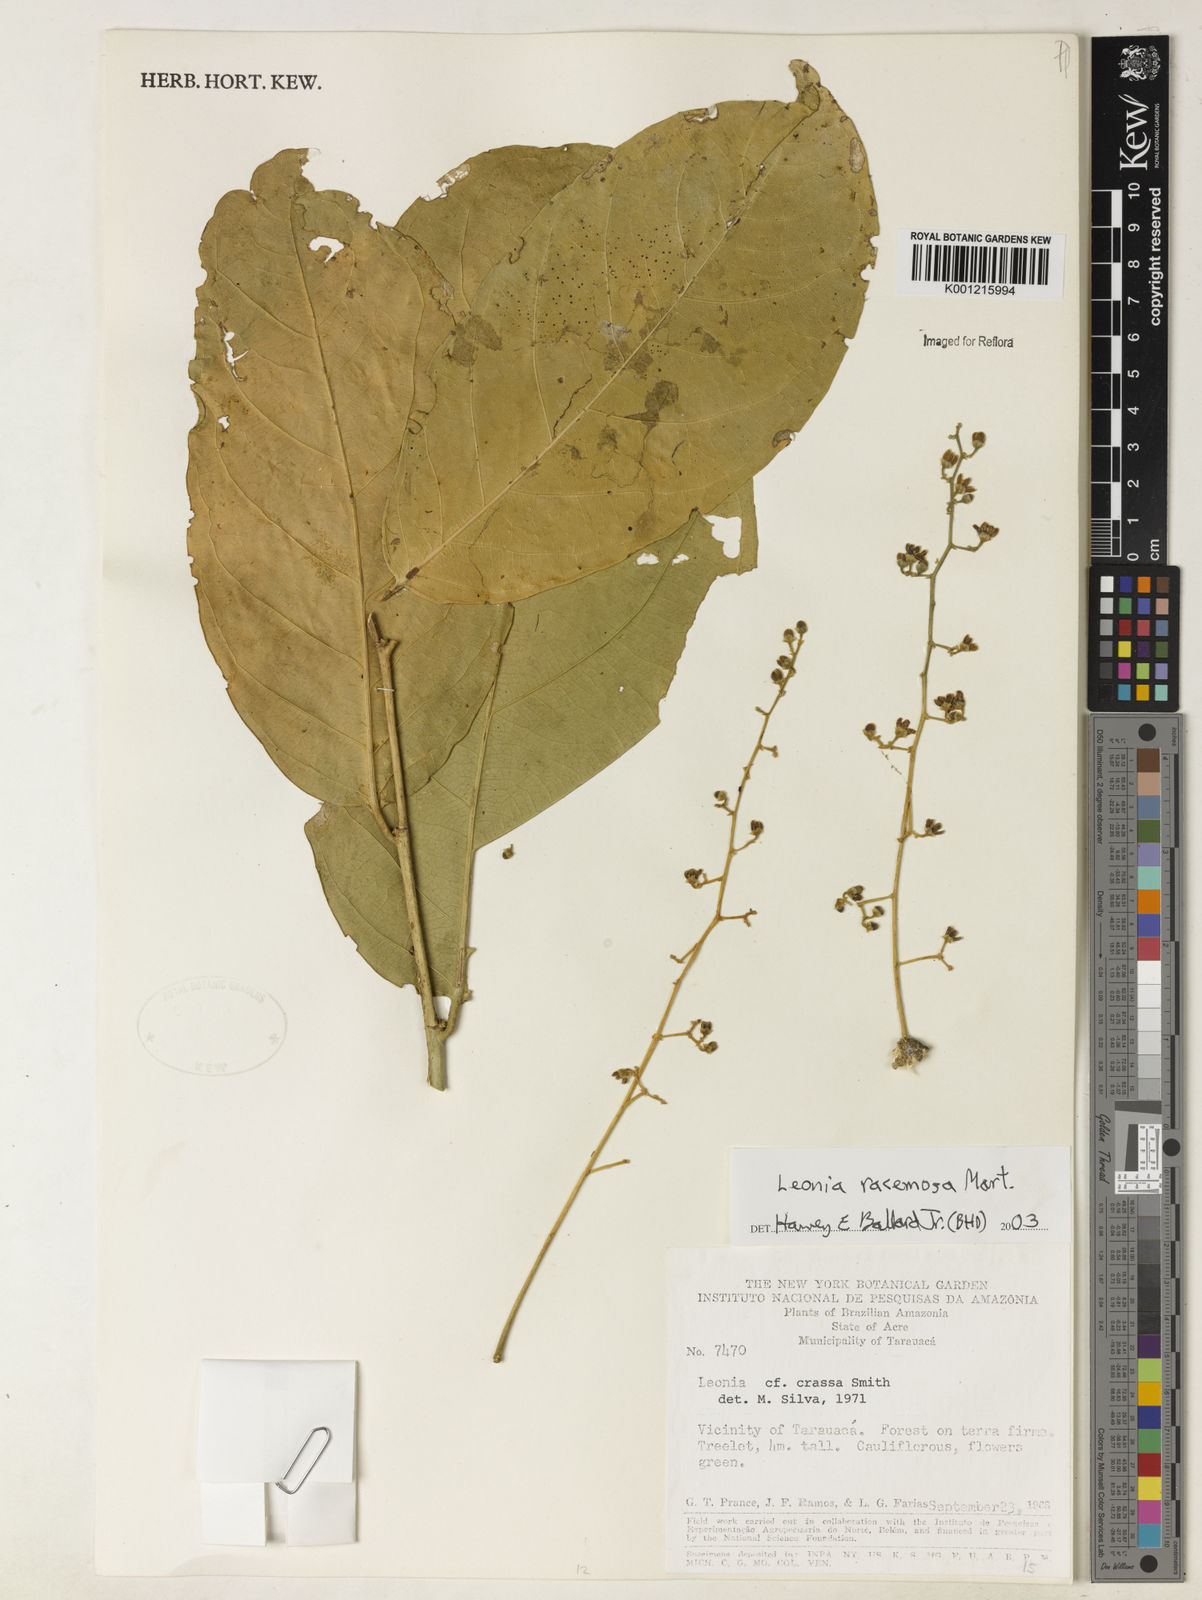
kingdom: Plantae
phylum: Tracheophyta
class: Magnoliopsida
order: Malpighiales
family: Violaceae
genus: Leonia
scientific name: Leonia glycycarpa
